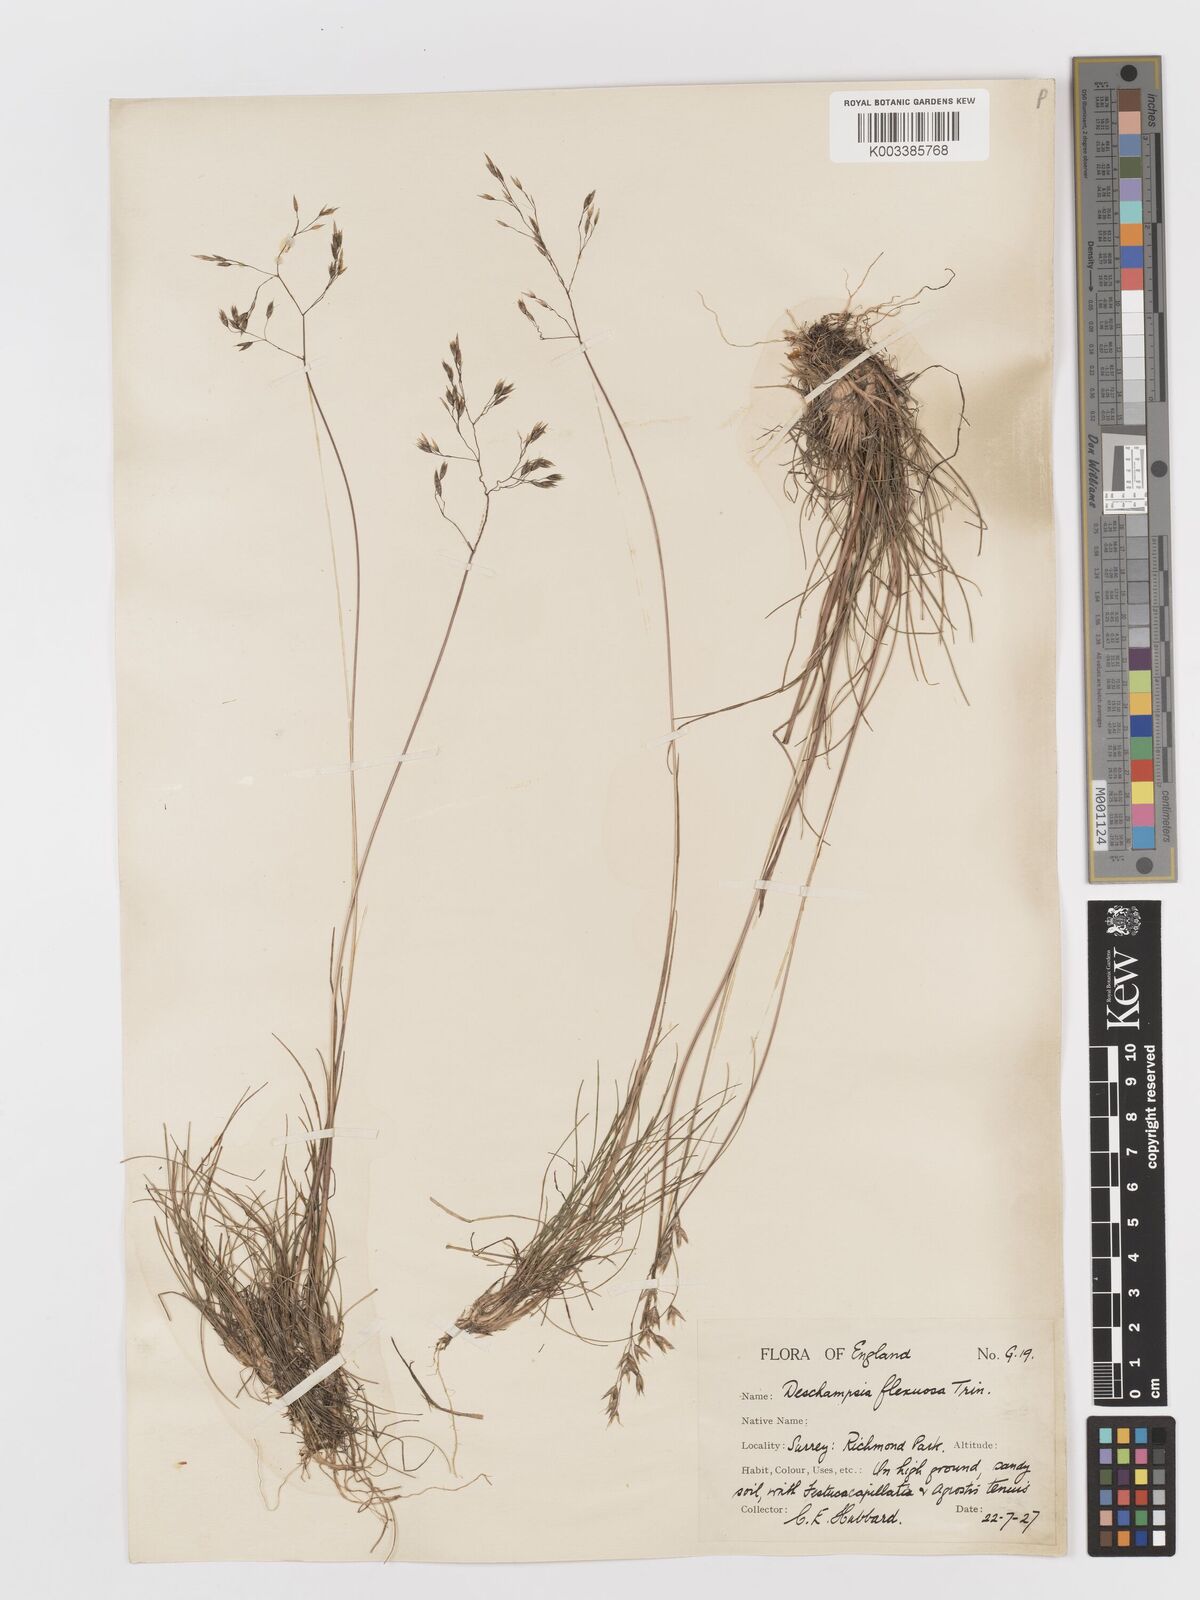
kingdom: Plantae
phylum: Tracheophyta
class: Liliopsida
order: Poales
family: Poaceae
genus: Avenella
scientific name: Avenella flexuosa
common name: Wavy hairgrass
